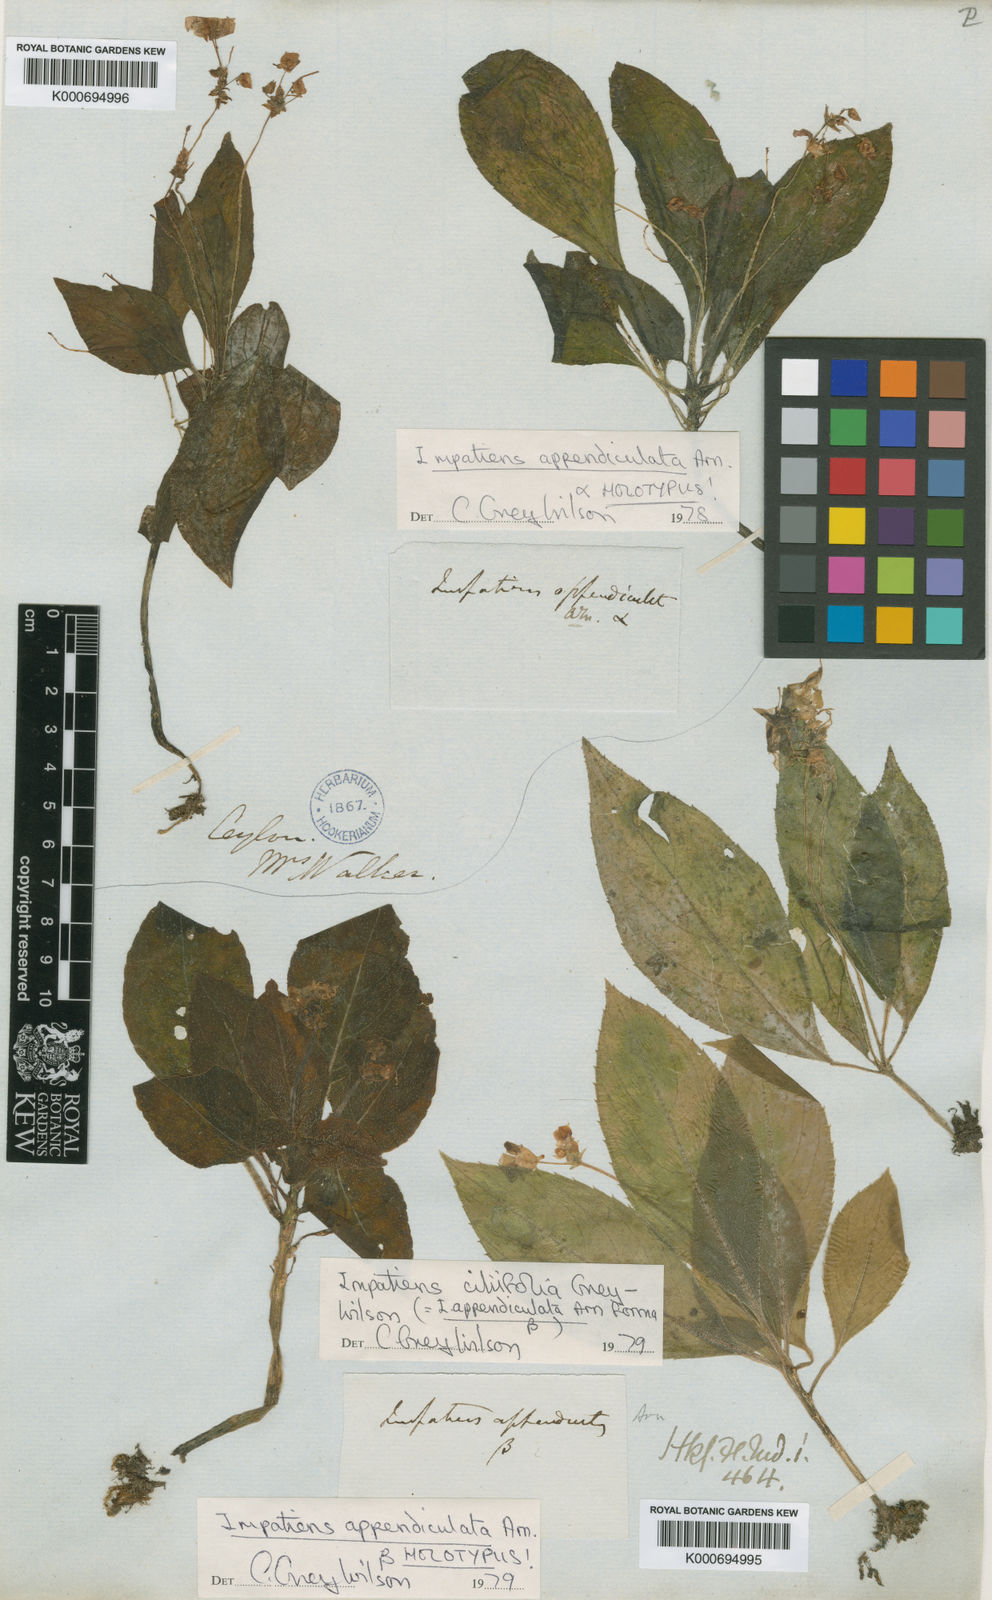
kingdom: Plantae
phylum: Tracheophyta
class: Magnoliopsida
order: Ericales
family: Balsaminaceae
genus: Impatiens
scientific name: Impatiens appendiculata
